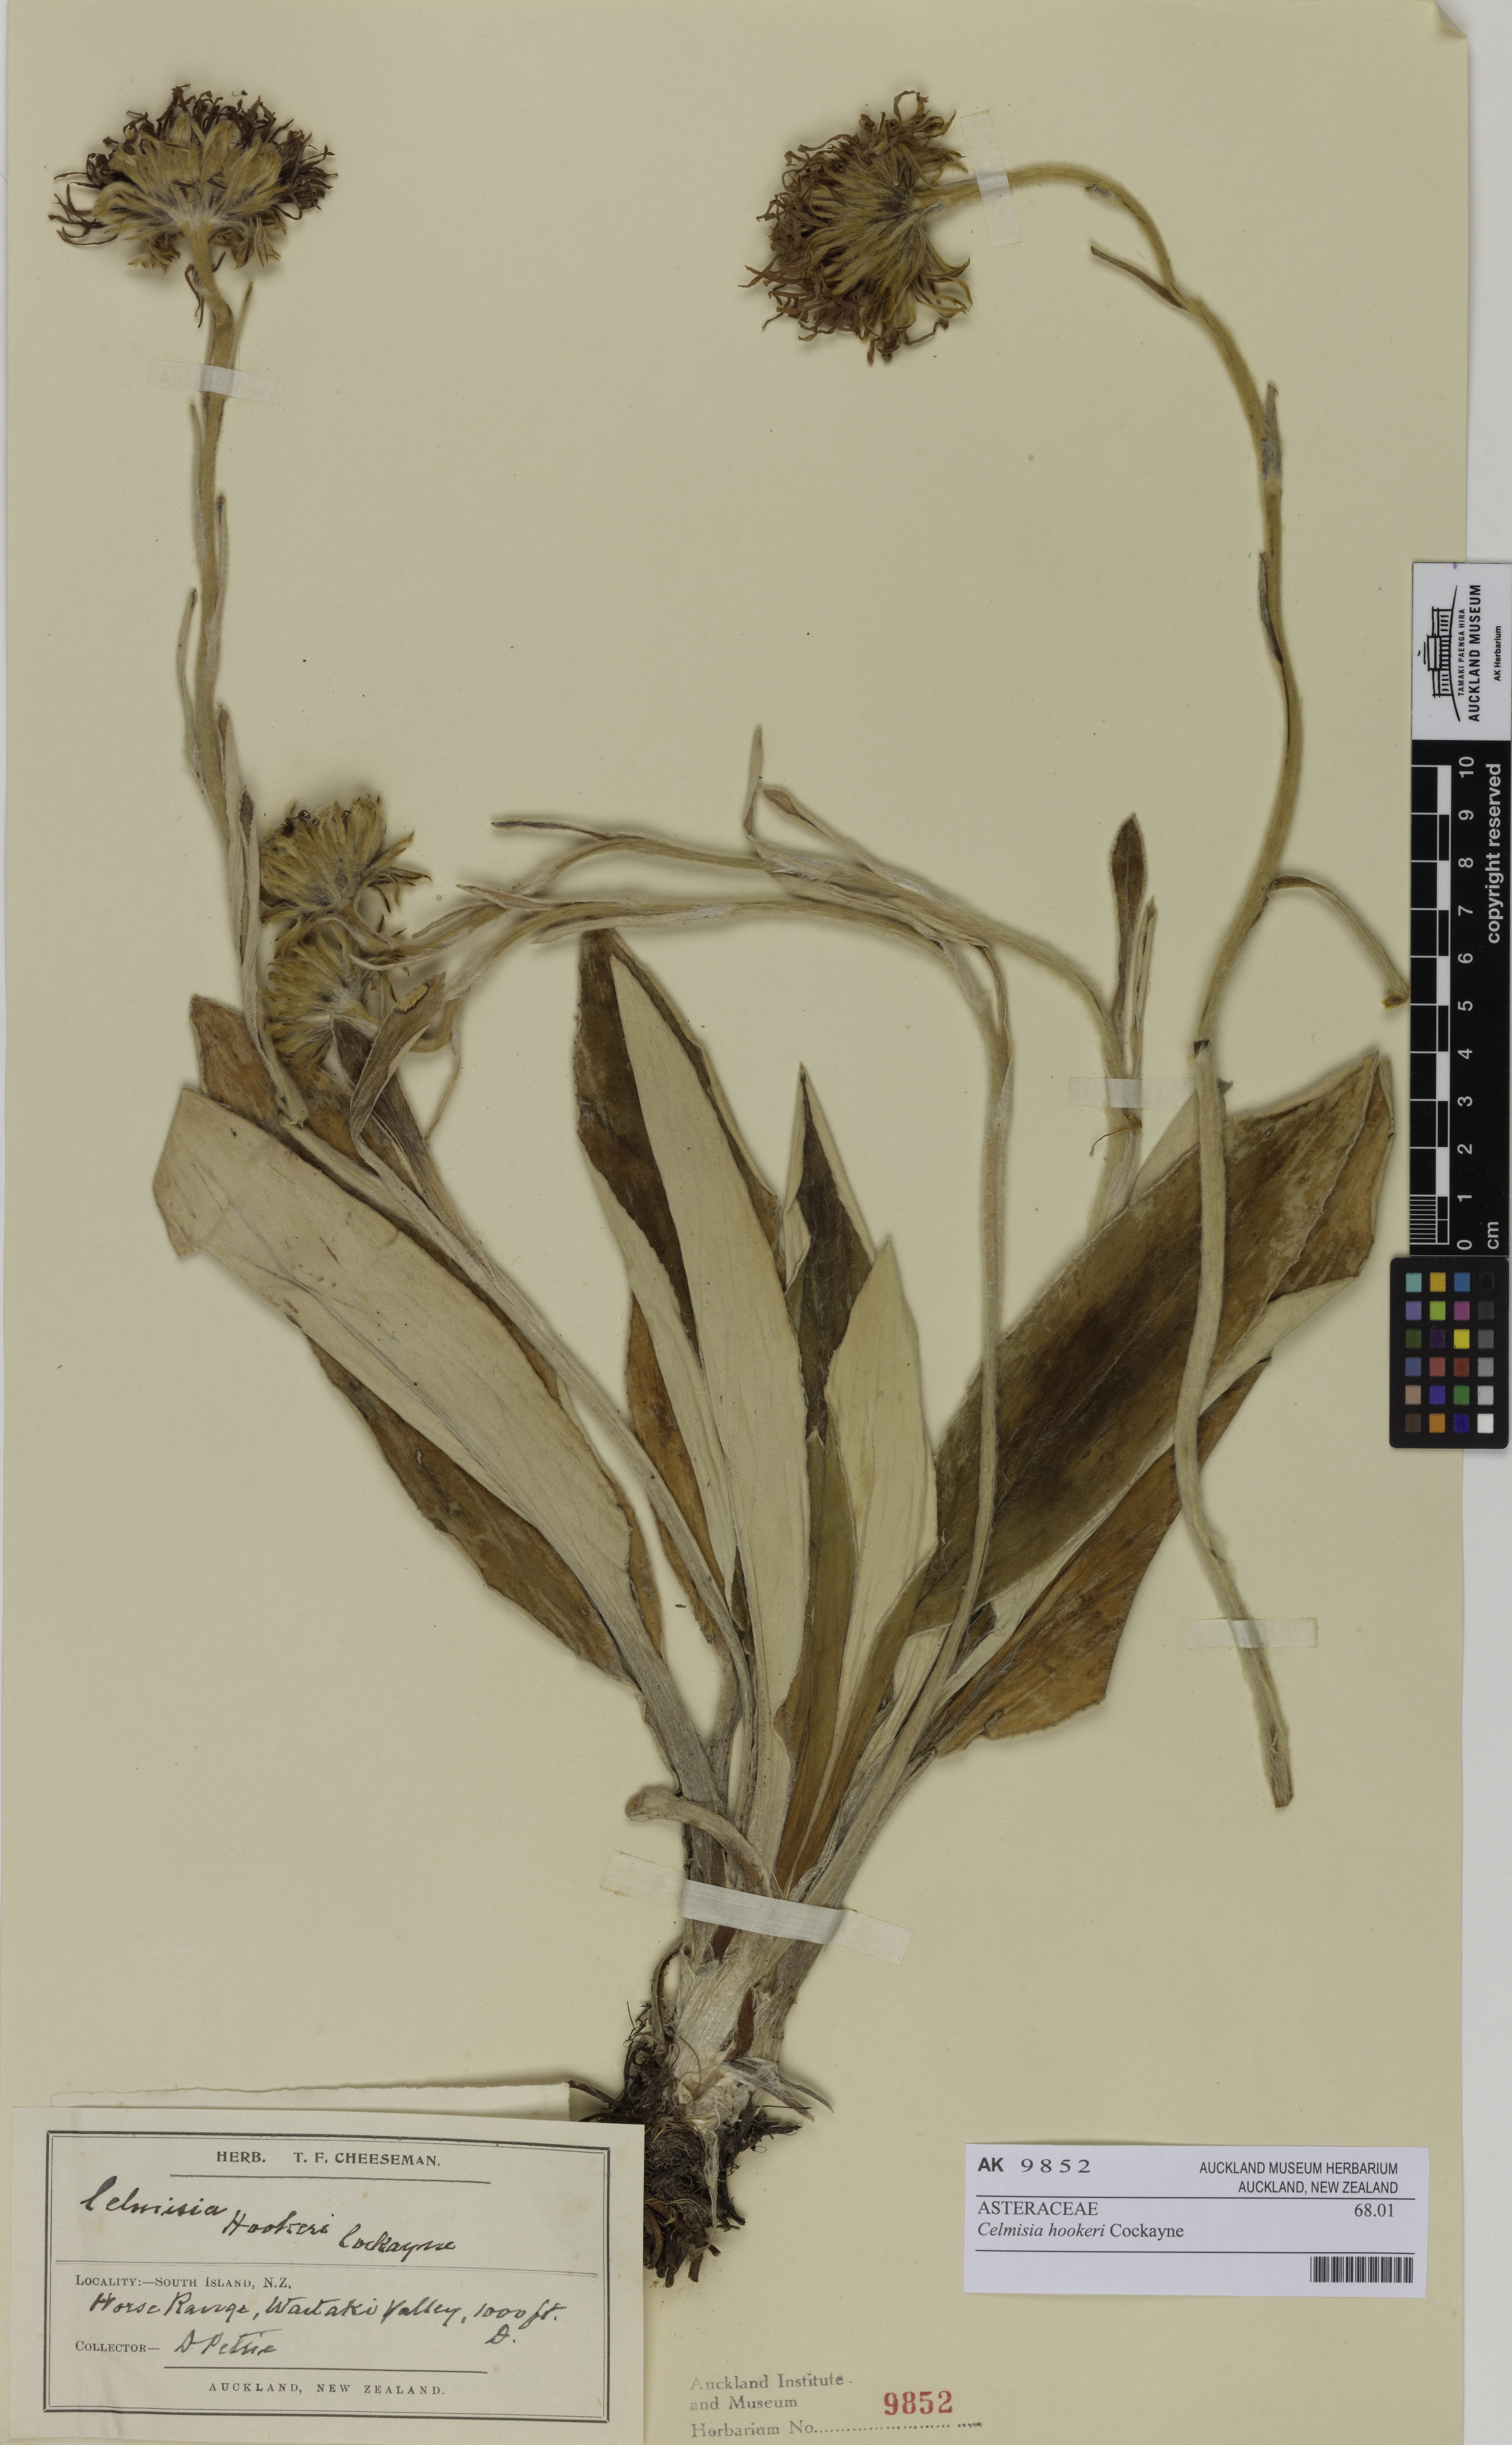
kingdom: Plantae
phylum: Tracheophyta
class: Magnoliopsida
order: Asterales
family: Asteraceae
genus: Celmisia
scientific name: Celmisia hookeri
